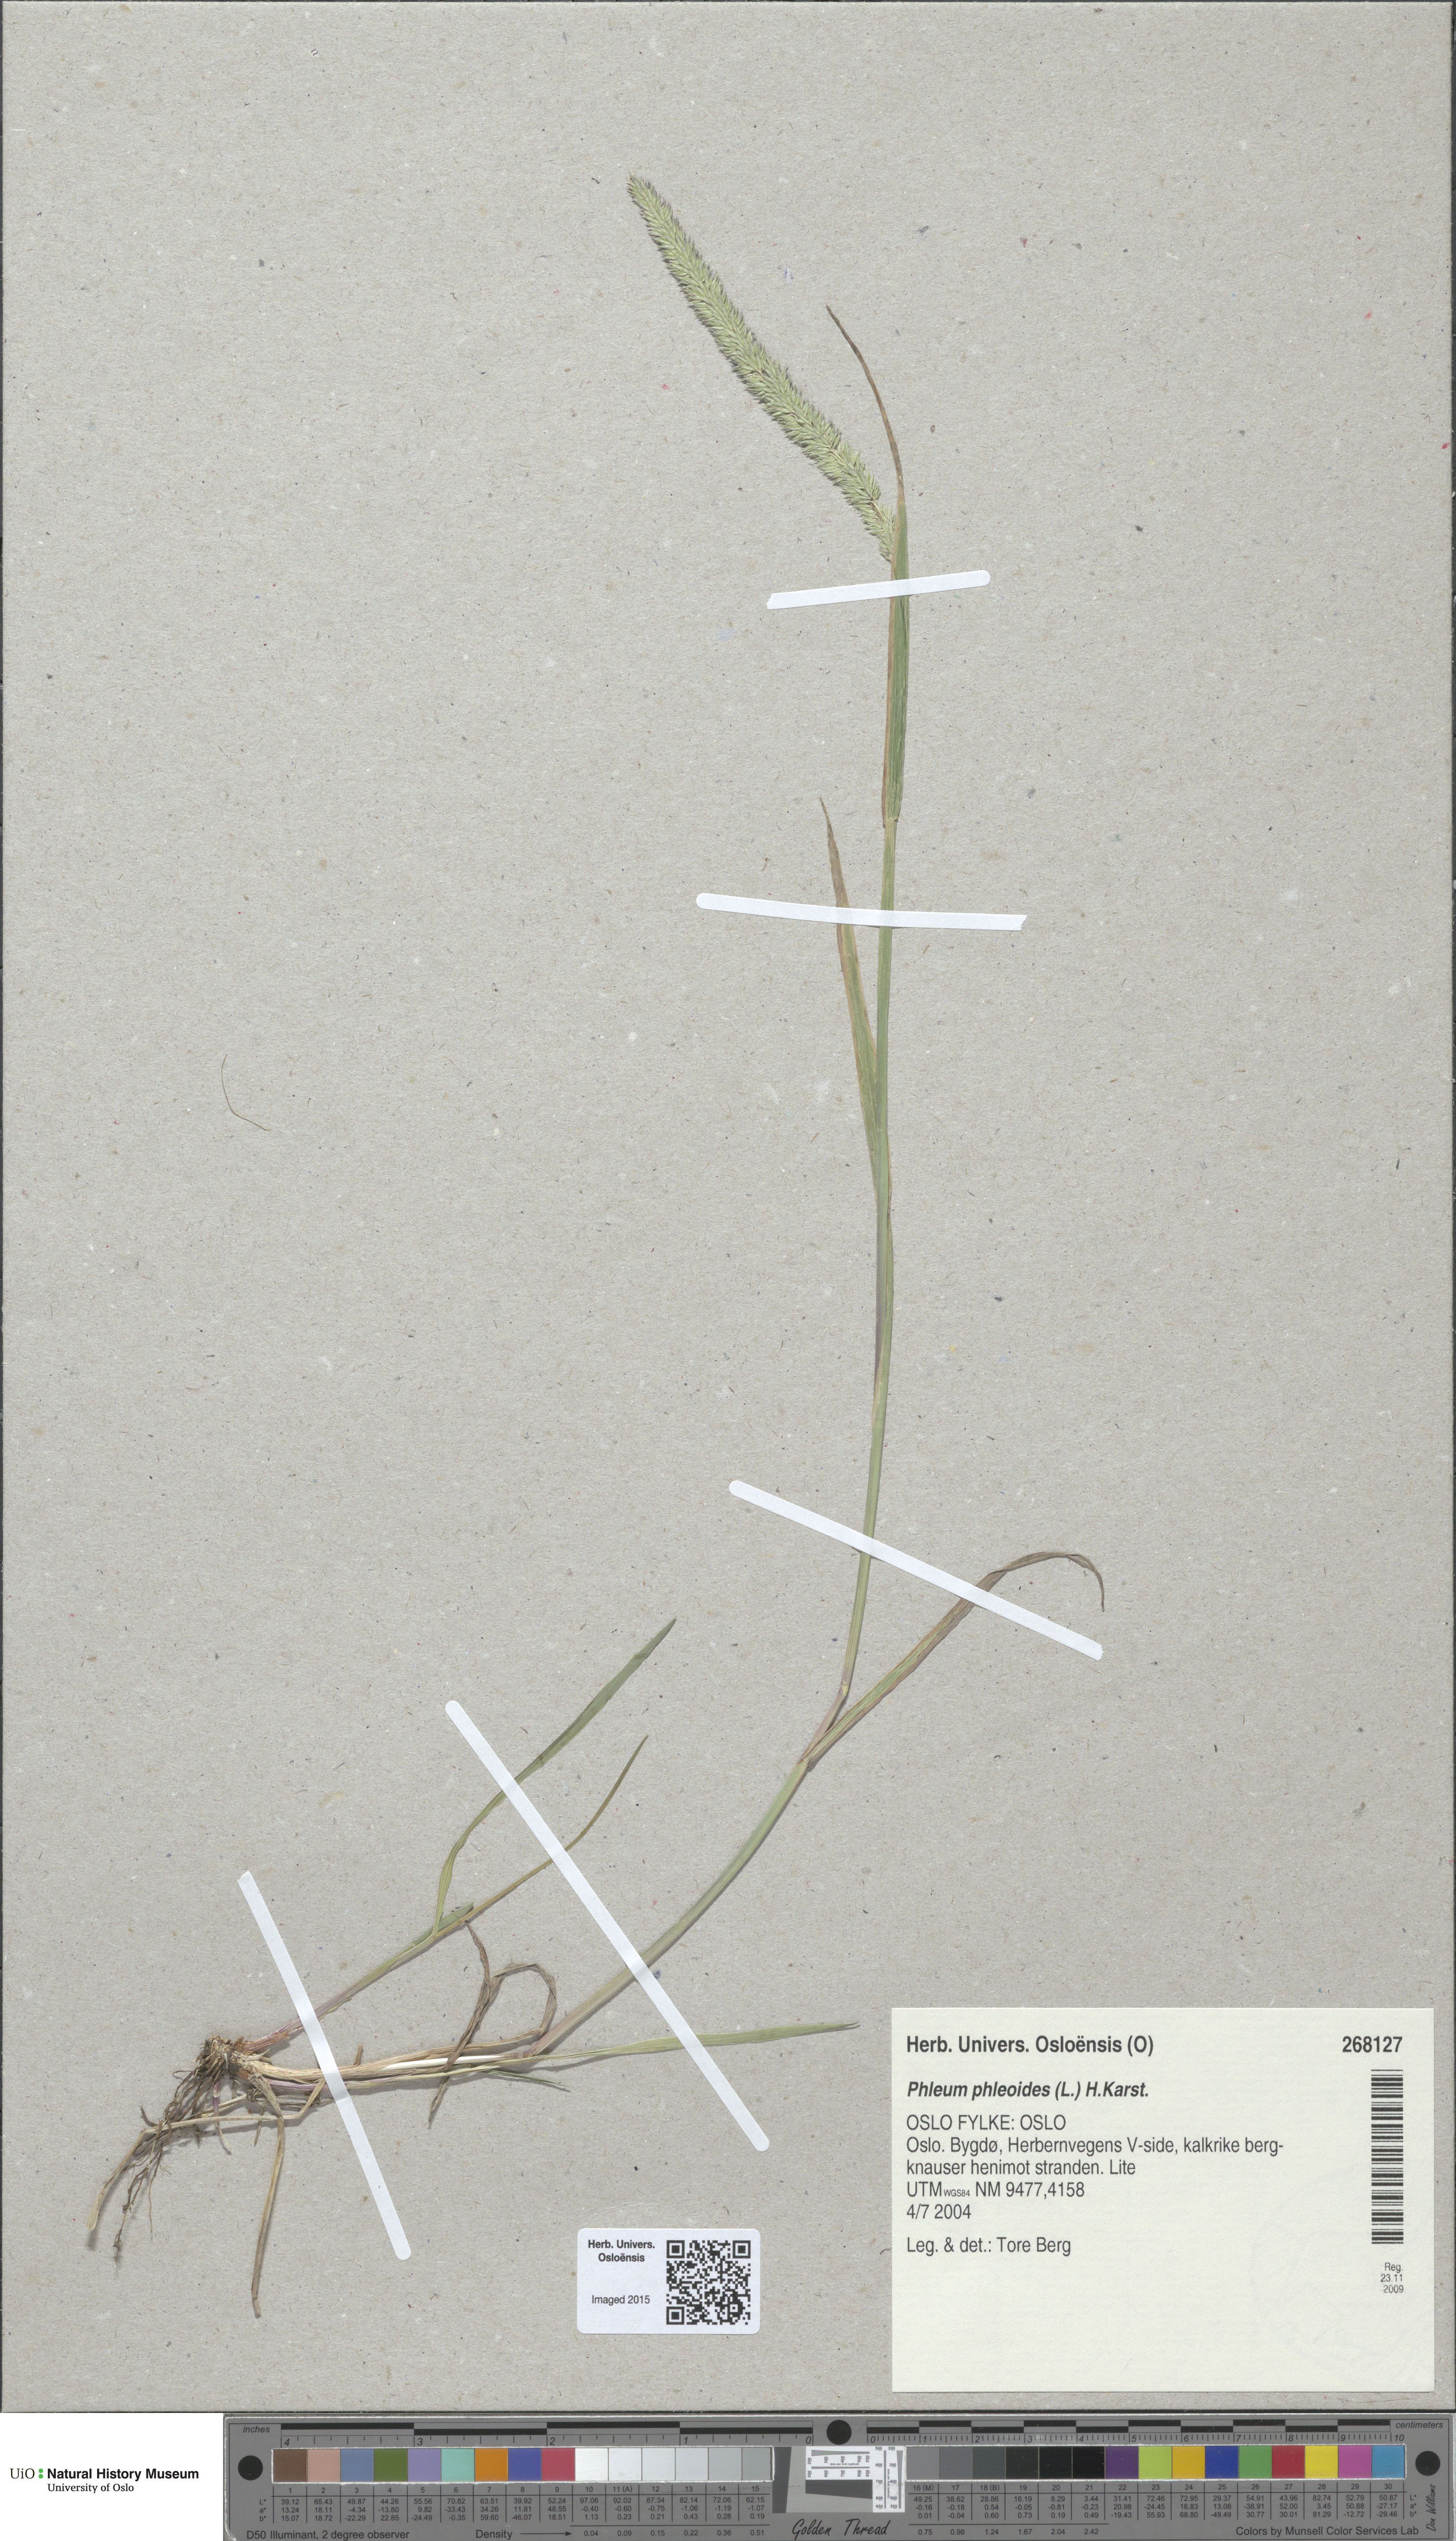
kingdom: Plantae
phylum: Tracheophyta
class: Liliopsida
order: Poales
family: Poaceae
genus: Phleum
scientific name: Phleum phleoides
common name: Purple-stem cat's-tail
